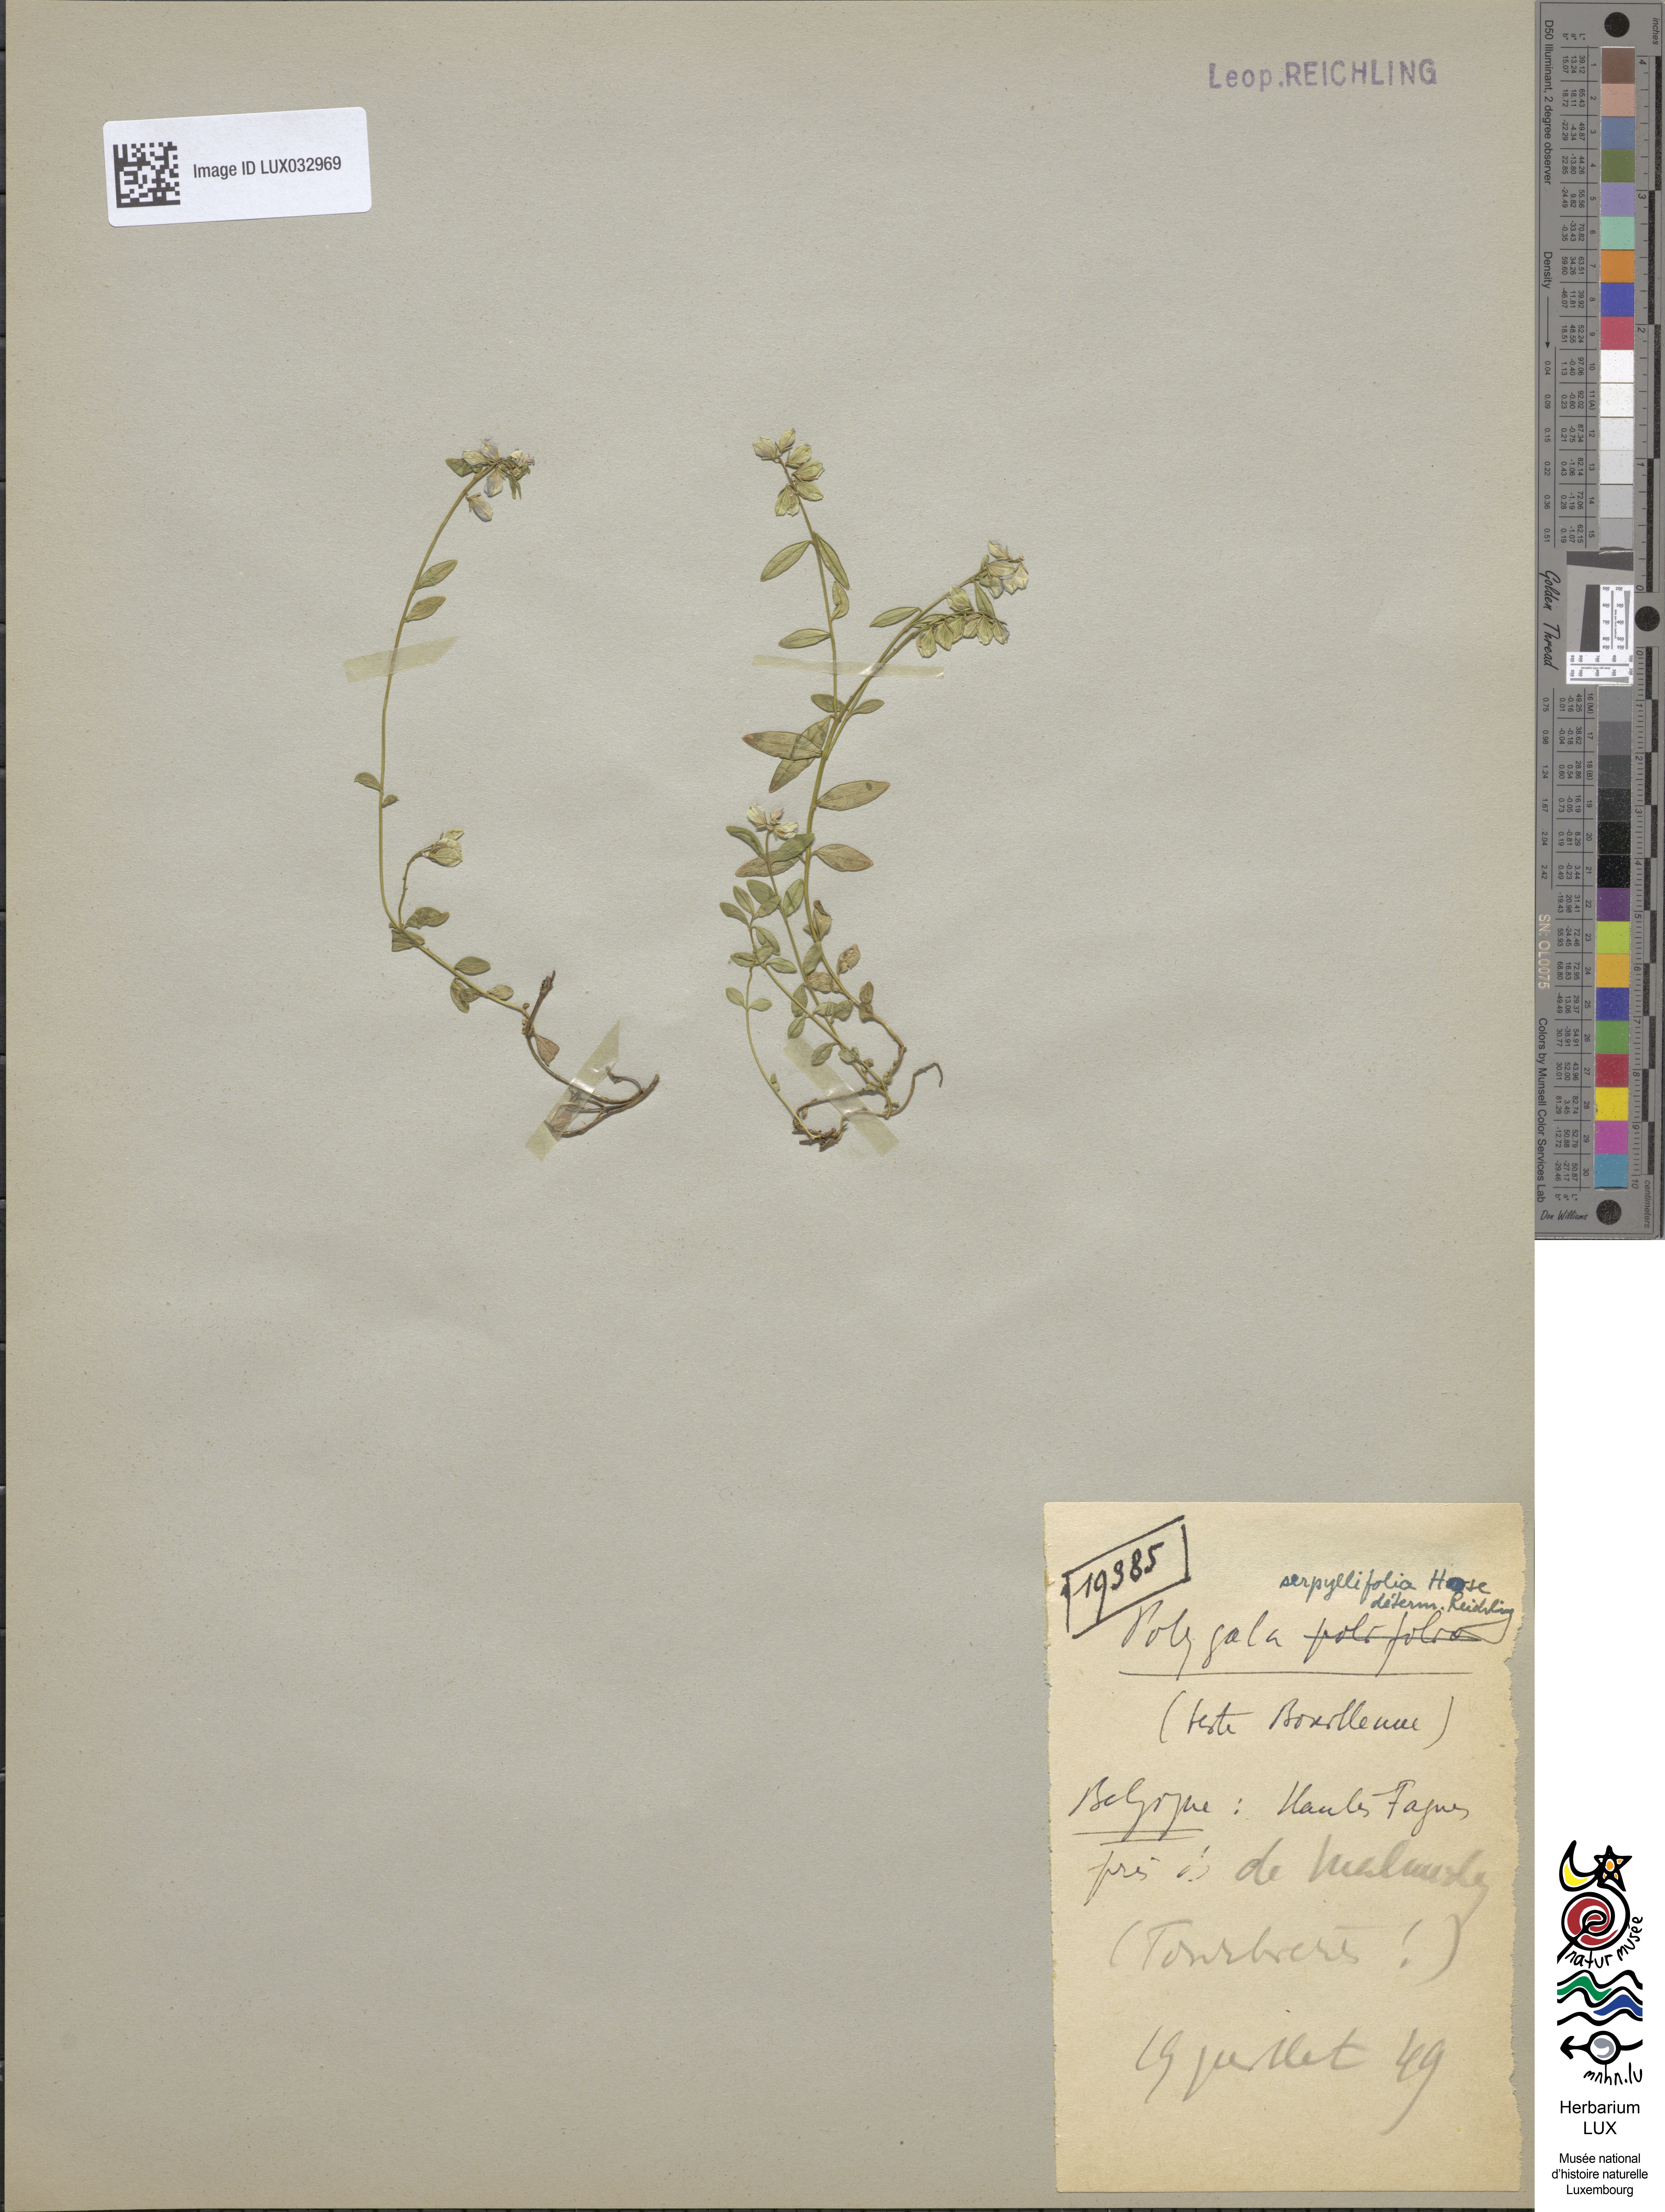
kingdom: Plantae
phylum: Tracheophyta
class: Magnoliopsida
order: Fabales
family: Polygalaceae
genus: Polygala
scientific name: Polygala serpyllifolia
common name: Heath milkwort
